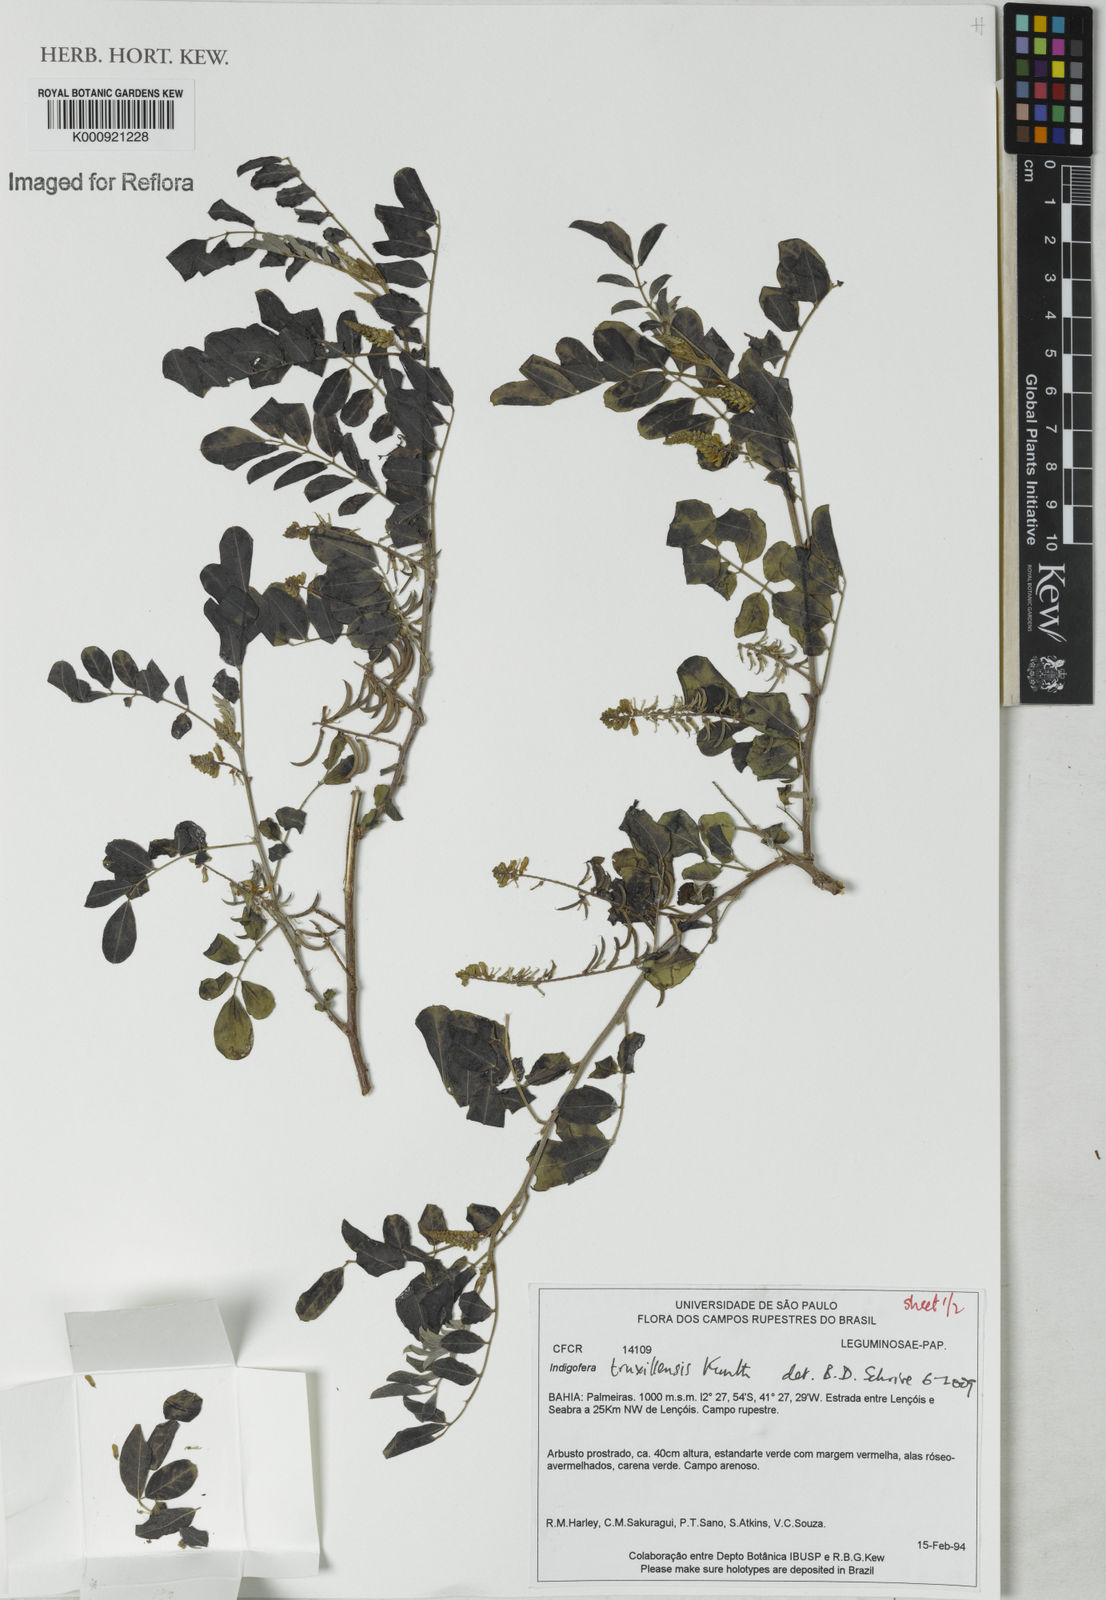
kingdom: Plantae
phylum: Tracheophyta
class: Magnoliopsida
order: Fabales
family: Fabaceae
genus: Indigofera
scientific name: Indigofera truxillensis
